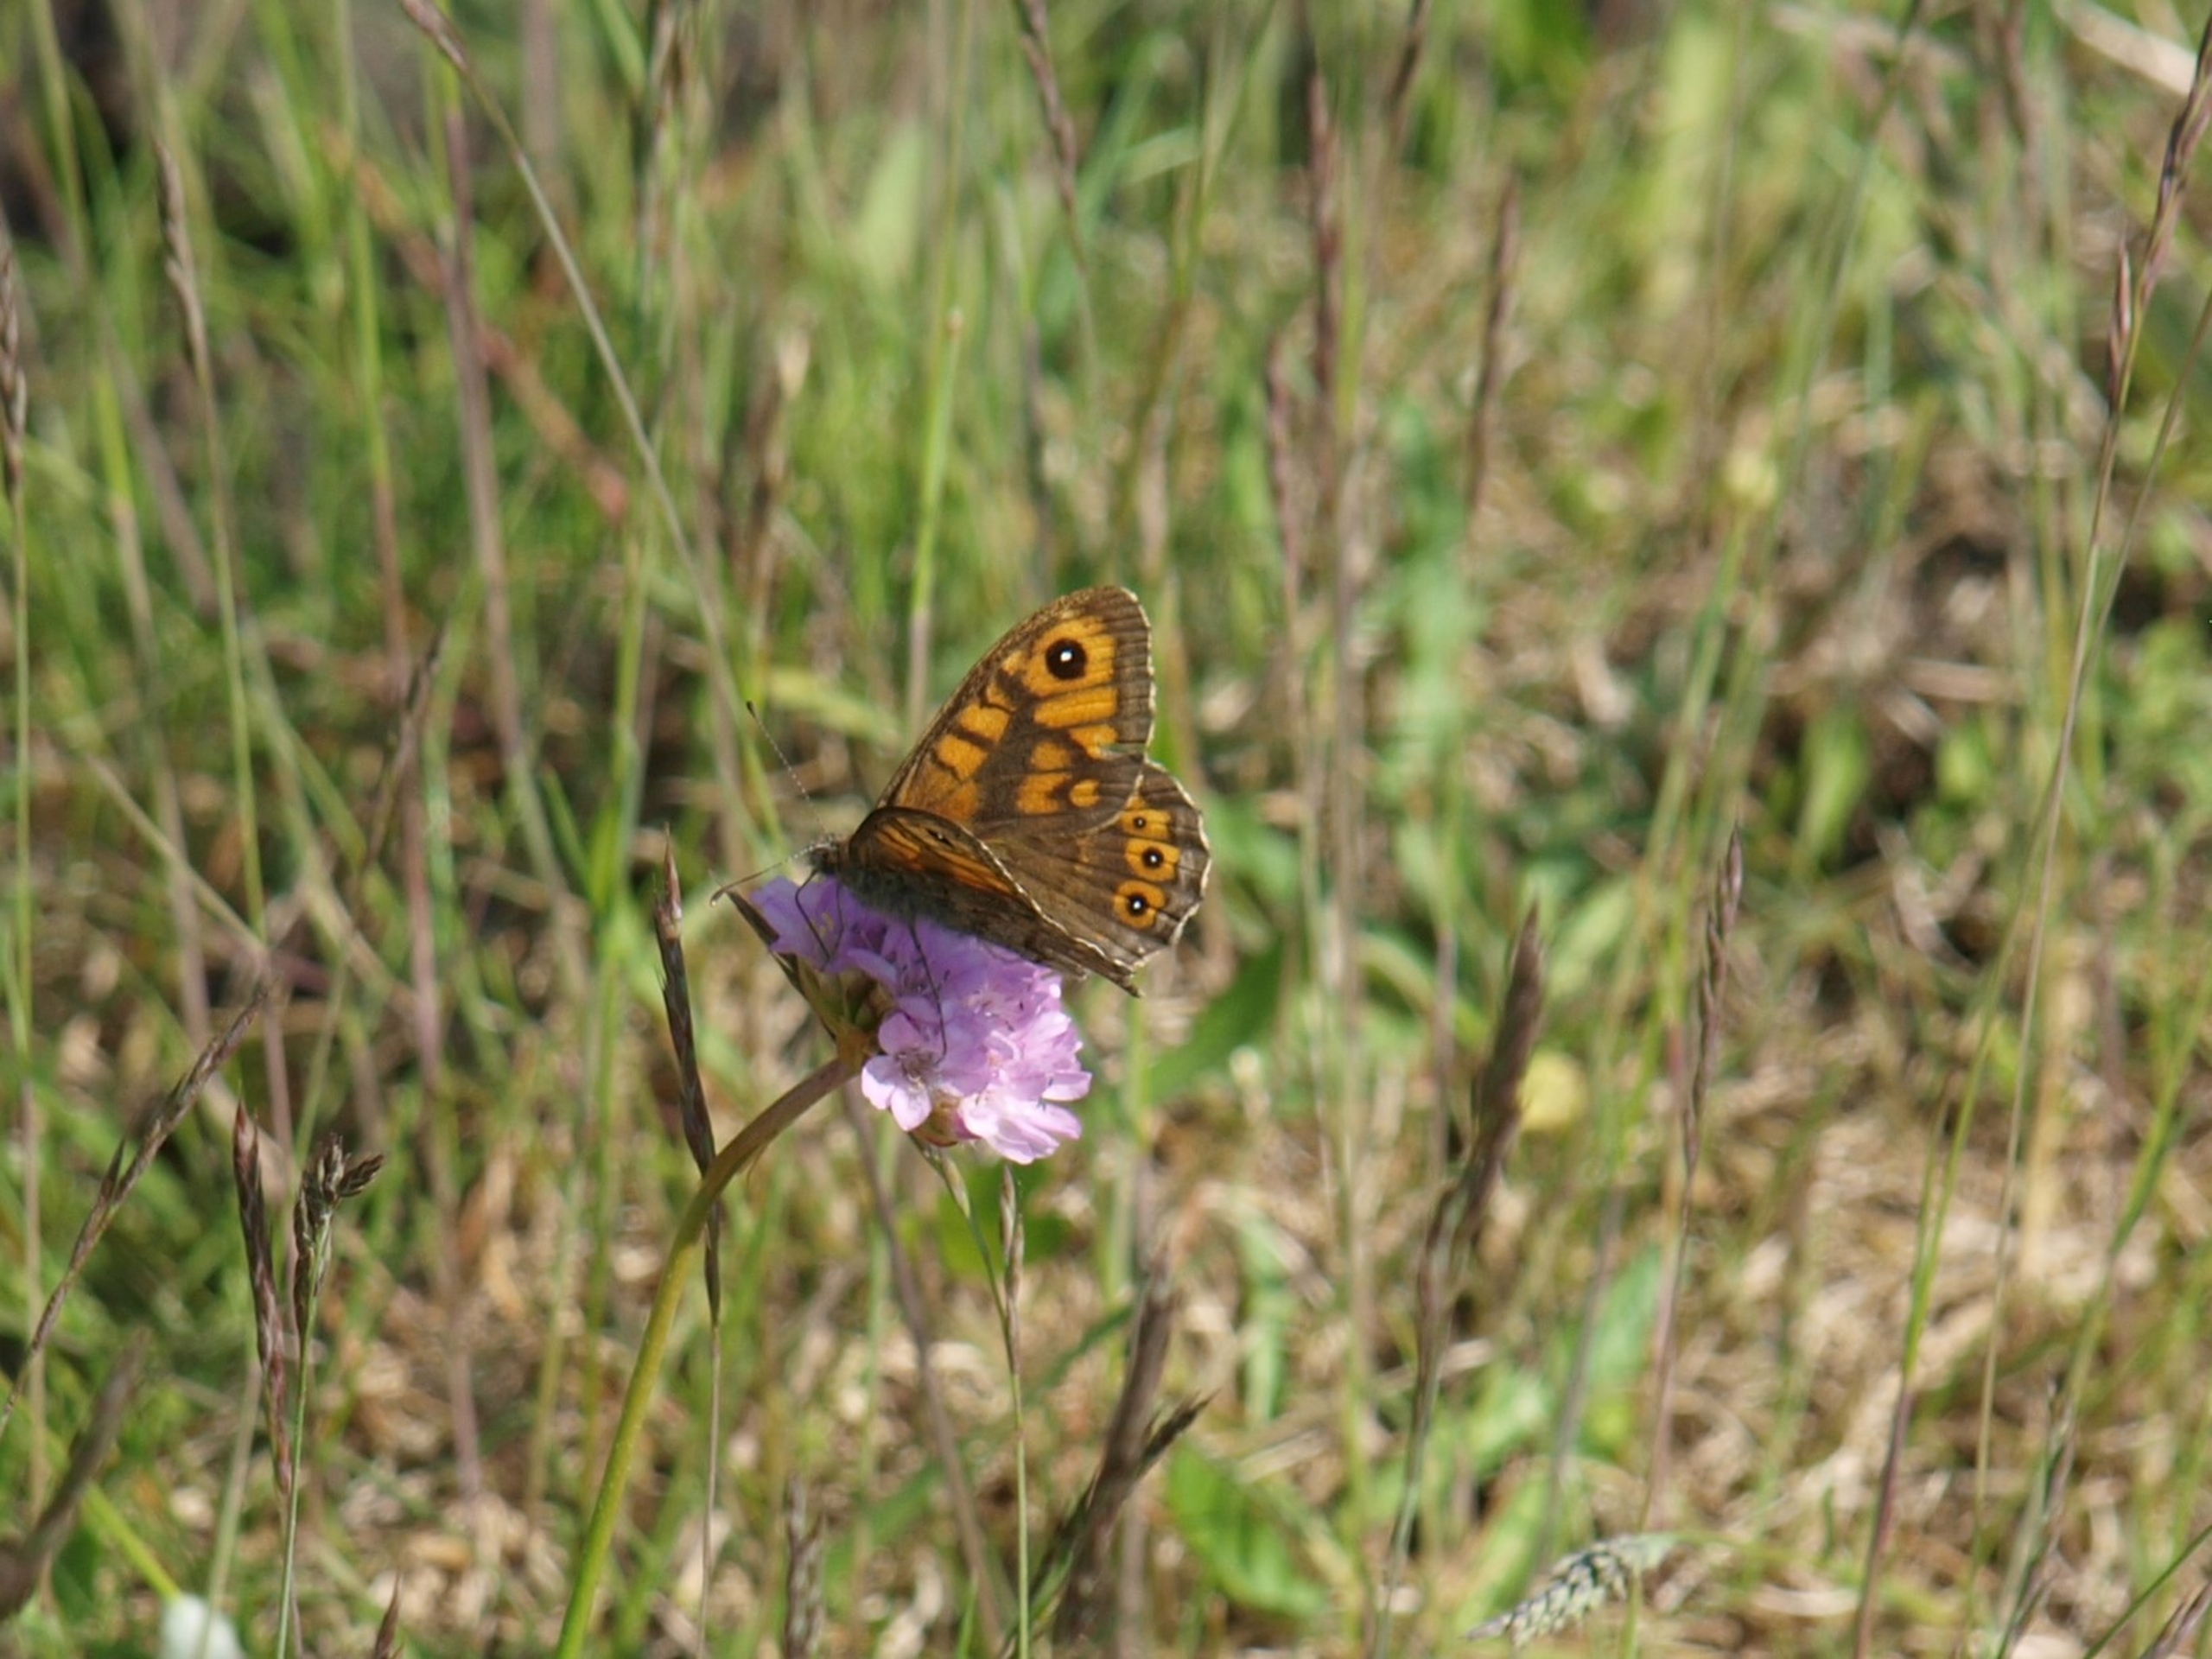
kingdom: Animalia
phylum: Arthropoda
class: Insecta
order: Lepidoptera
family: Nymphalidae
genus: Pararge
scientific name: Pararge Lasiommata megera
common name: Vejrandøje
